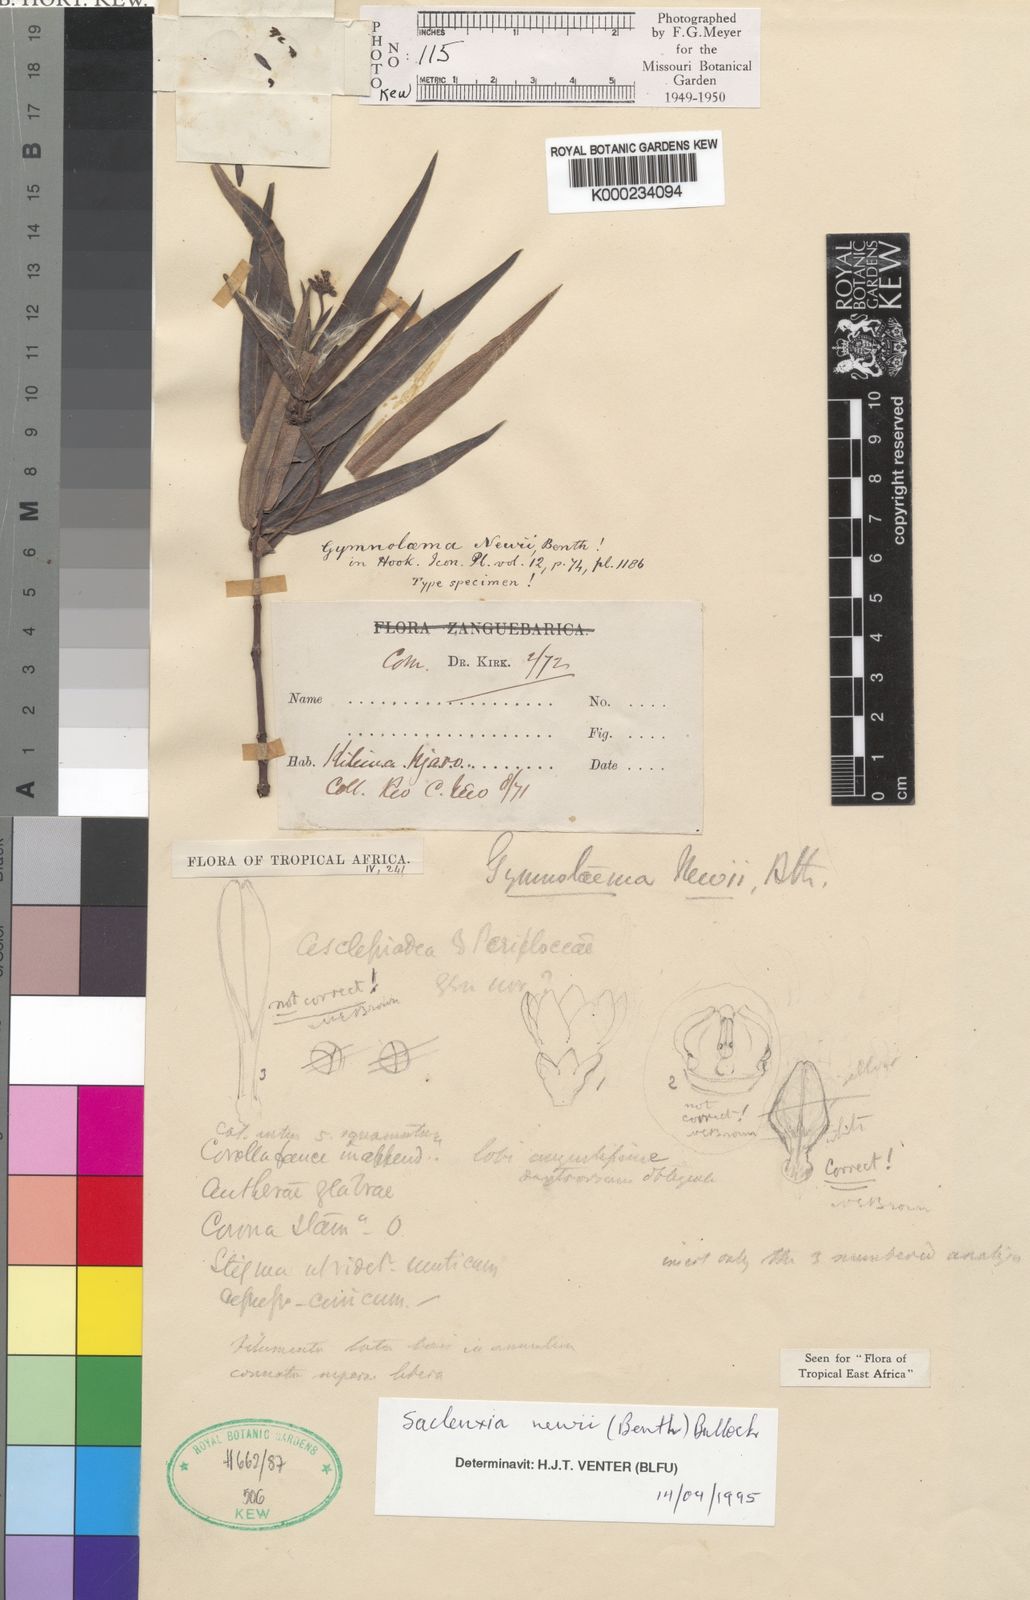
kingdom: Plantae
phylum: Tracheophyta
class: Magnoliopsida
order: Gentianales
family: Apocynaceae
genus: Cryptolepis
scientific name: Cryptolepis newii
